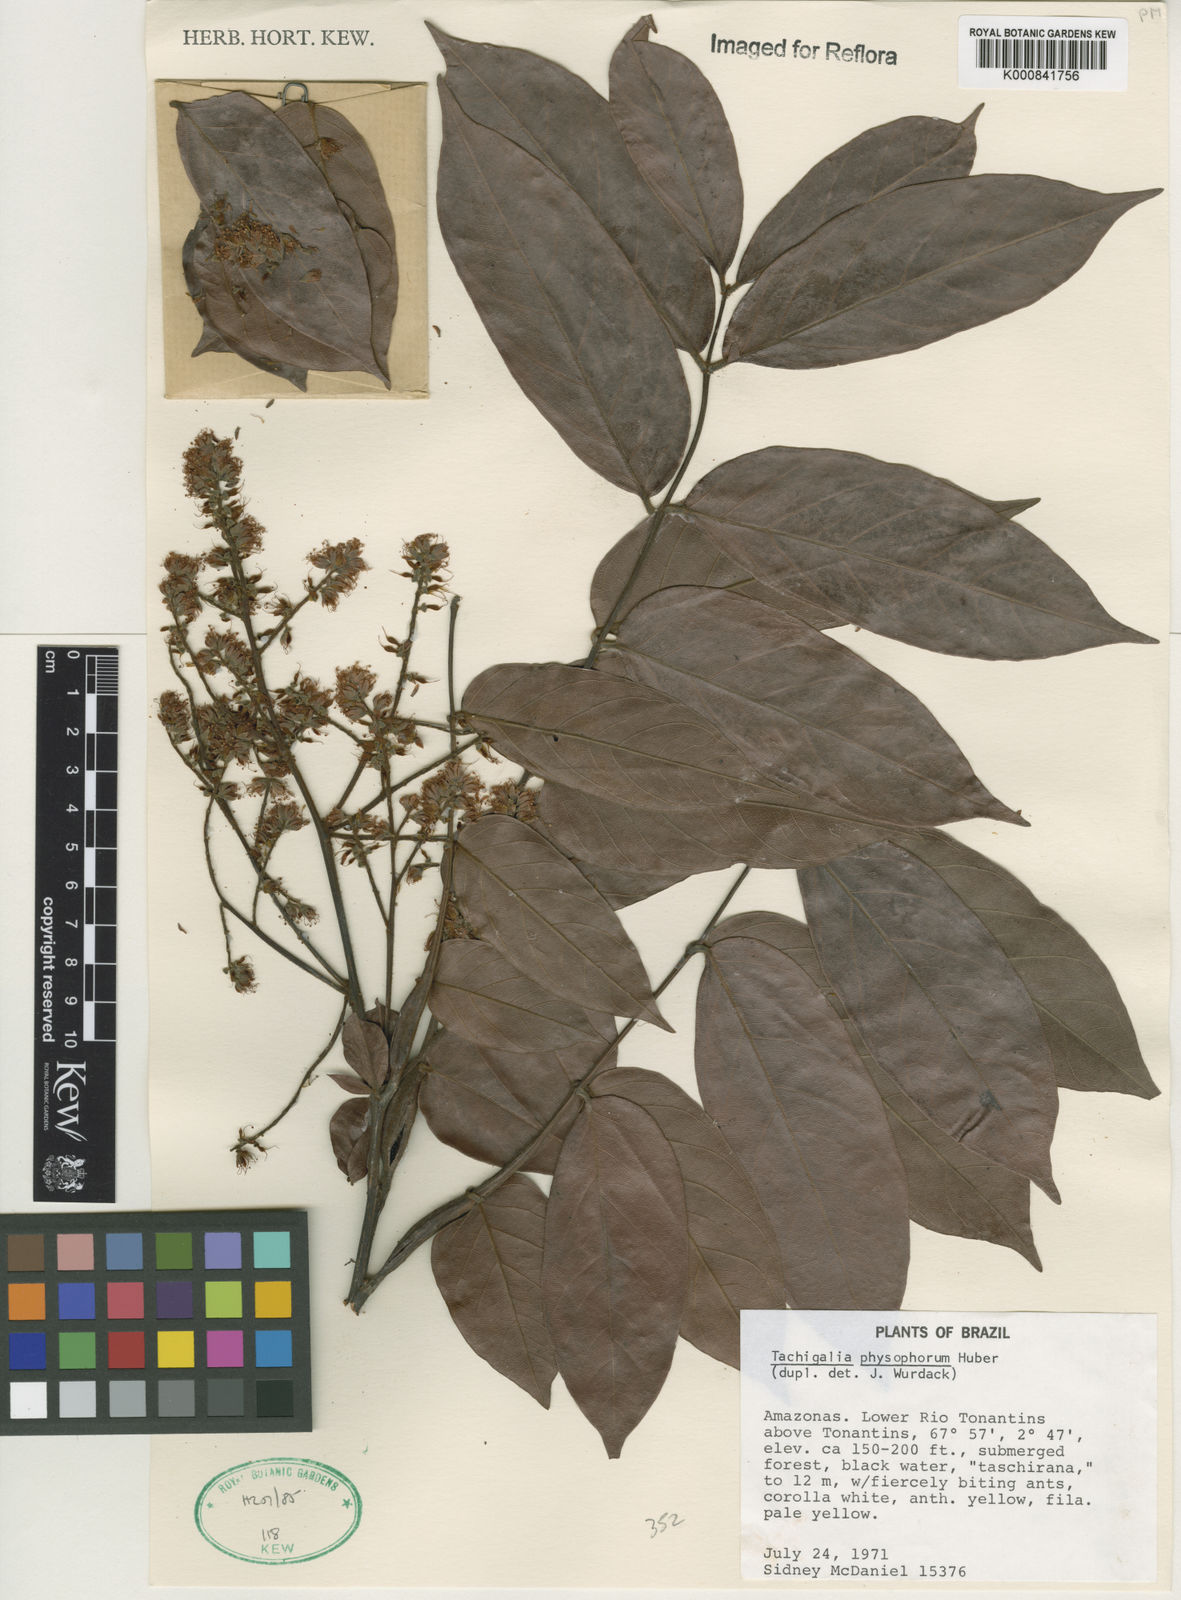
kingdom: Plantae
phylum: Tracheophyta
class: Magnoliopsida
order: Fabales
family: Fabaceae
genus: Tachigali
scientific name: Tachigali physophora
